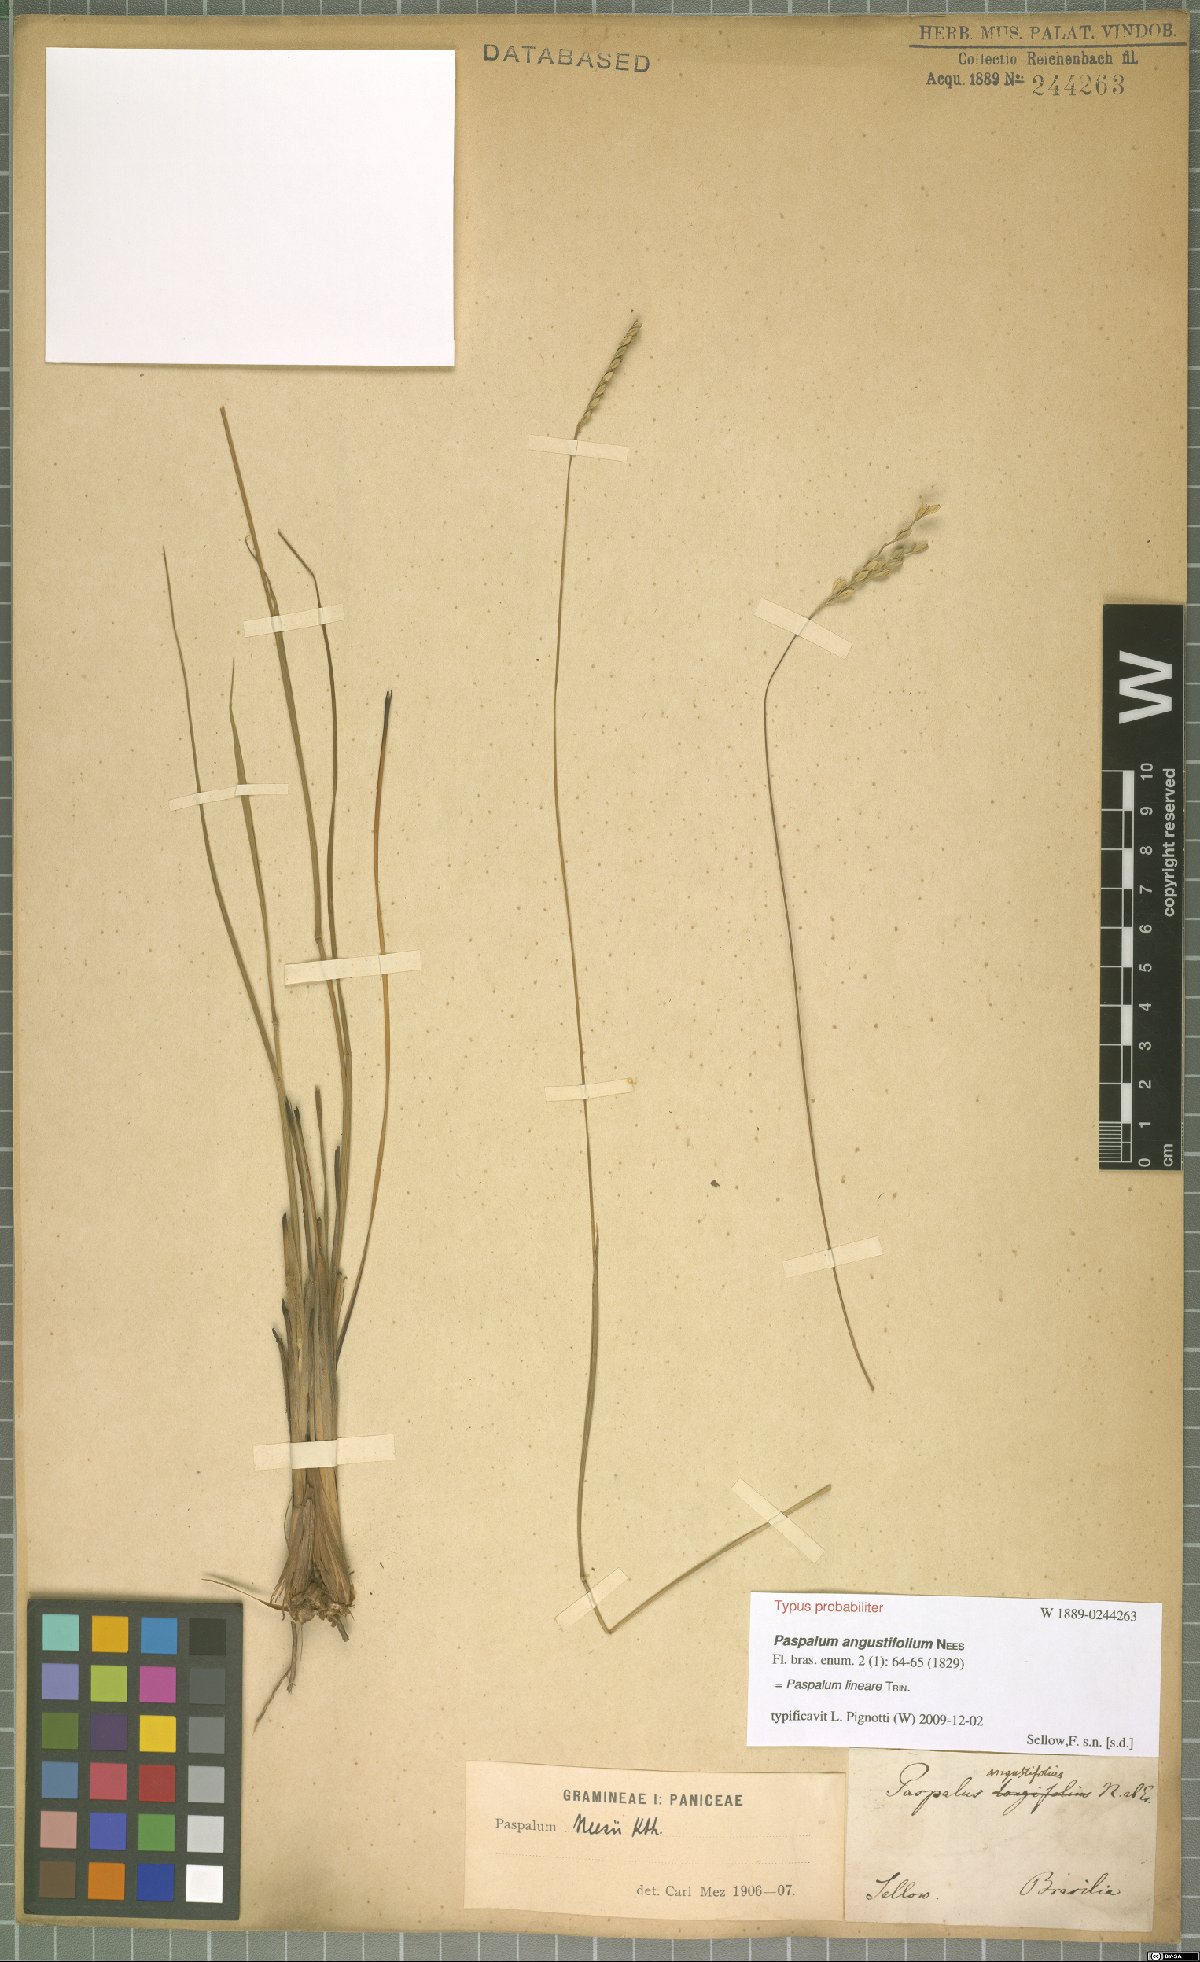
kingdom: Plantae
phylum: Tracheophyta
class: Liliopsida
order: Poales
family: Poaceae
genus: Paspalum
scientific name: Paspalum lineare
